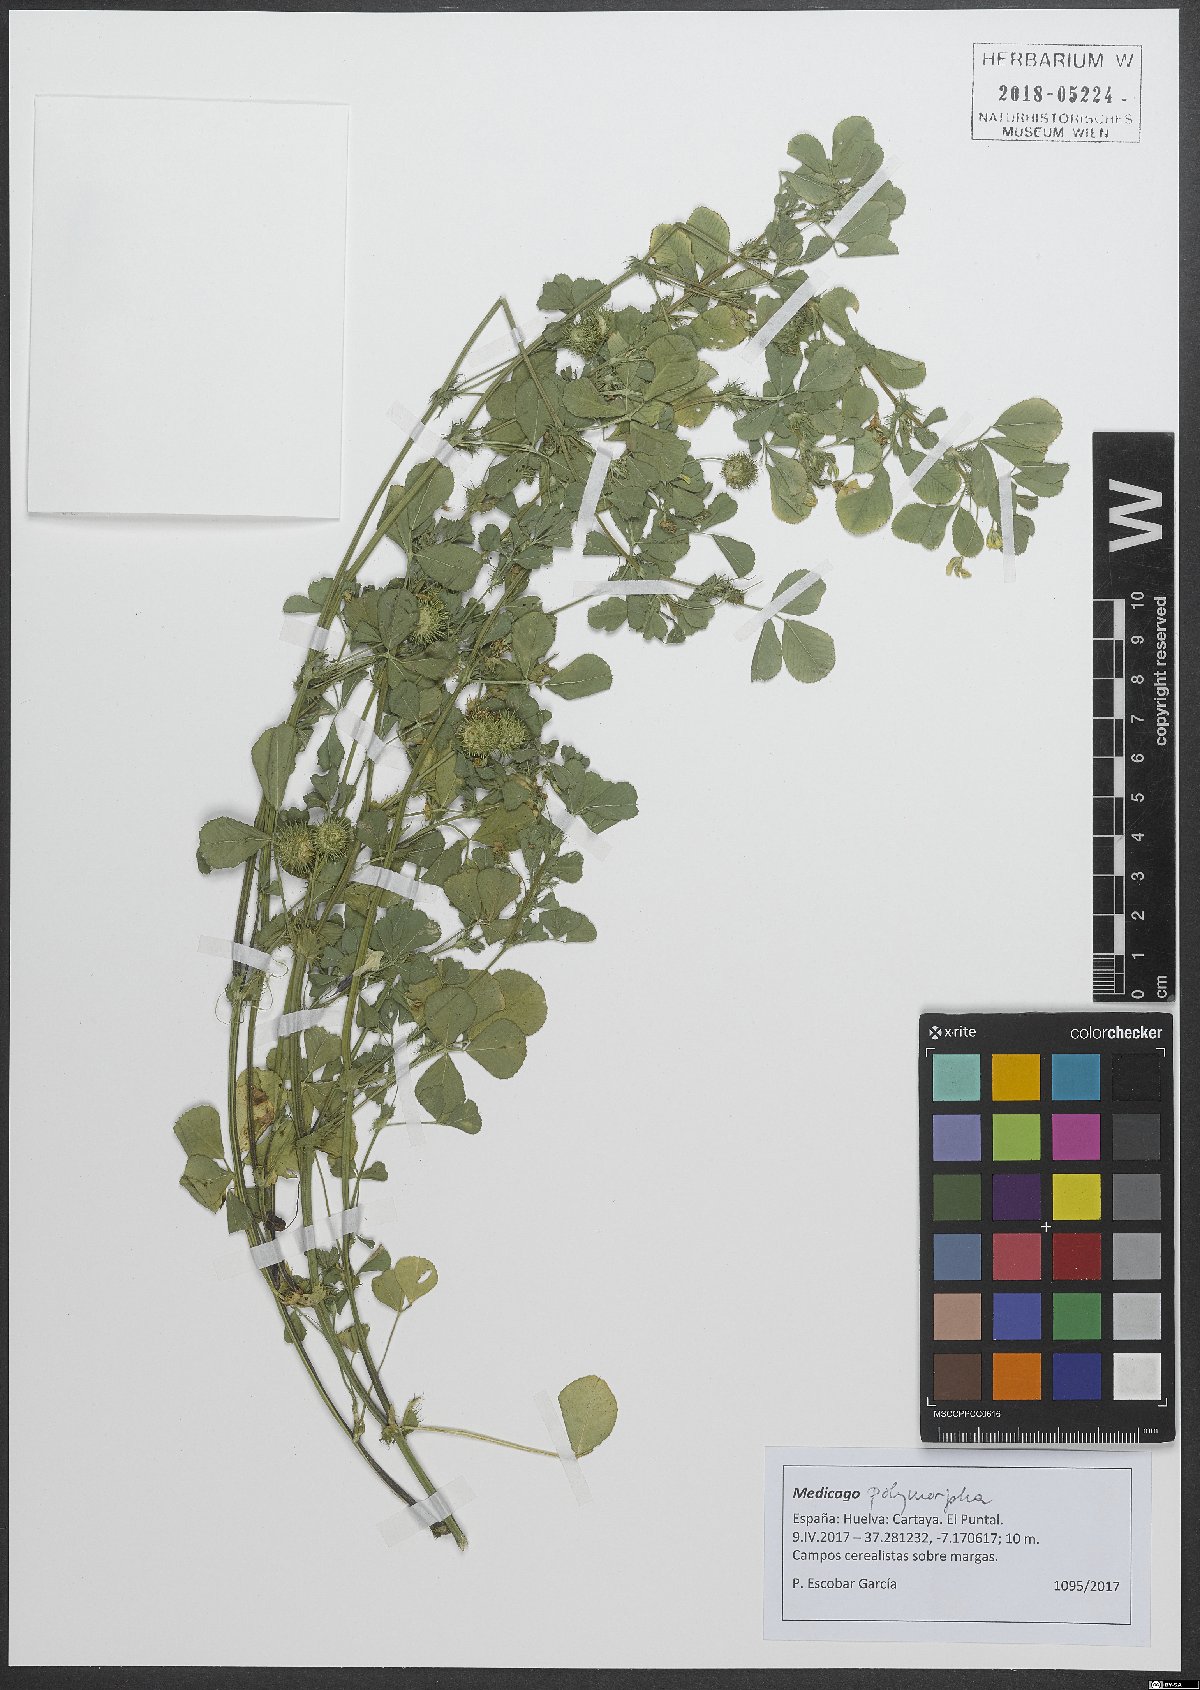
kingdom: Plantae
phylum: Tracheophyta
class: Magnoliopsida
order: Fabales
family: Fabaceae
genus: Medicago
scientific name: Medicago polymorpha
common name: Burclover
